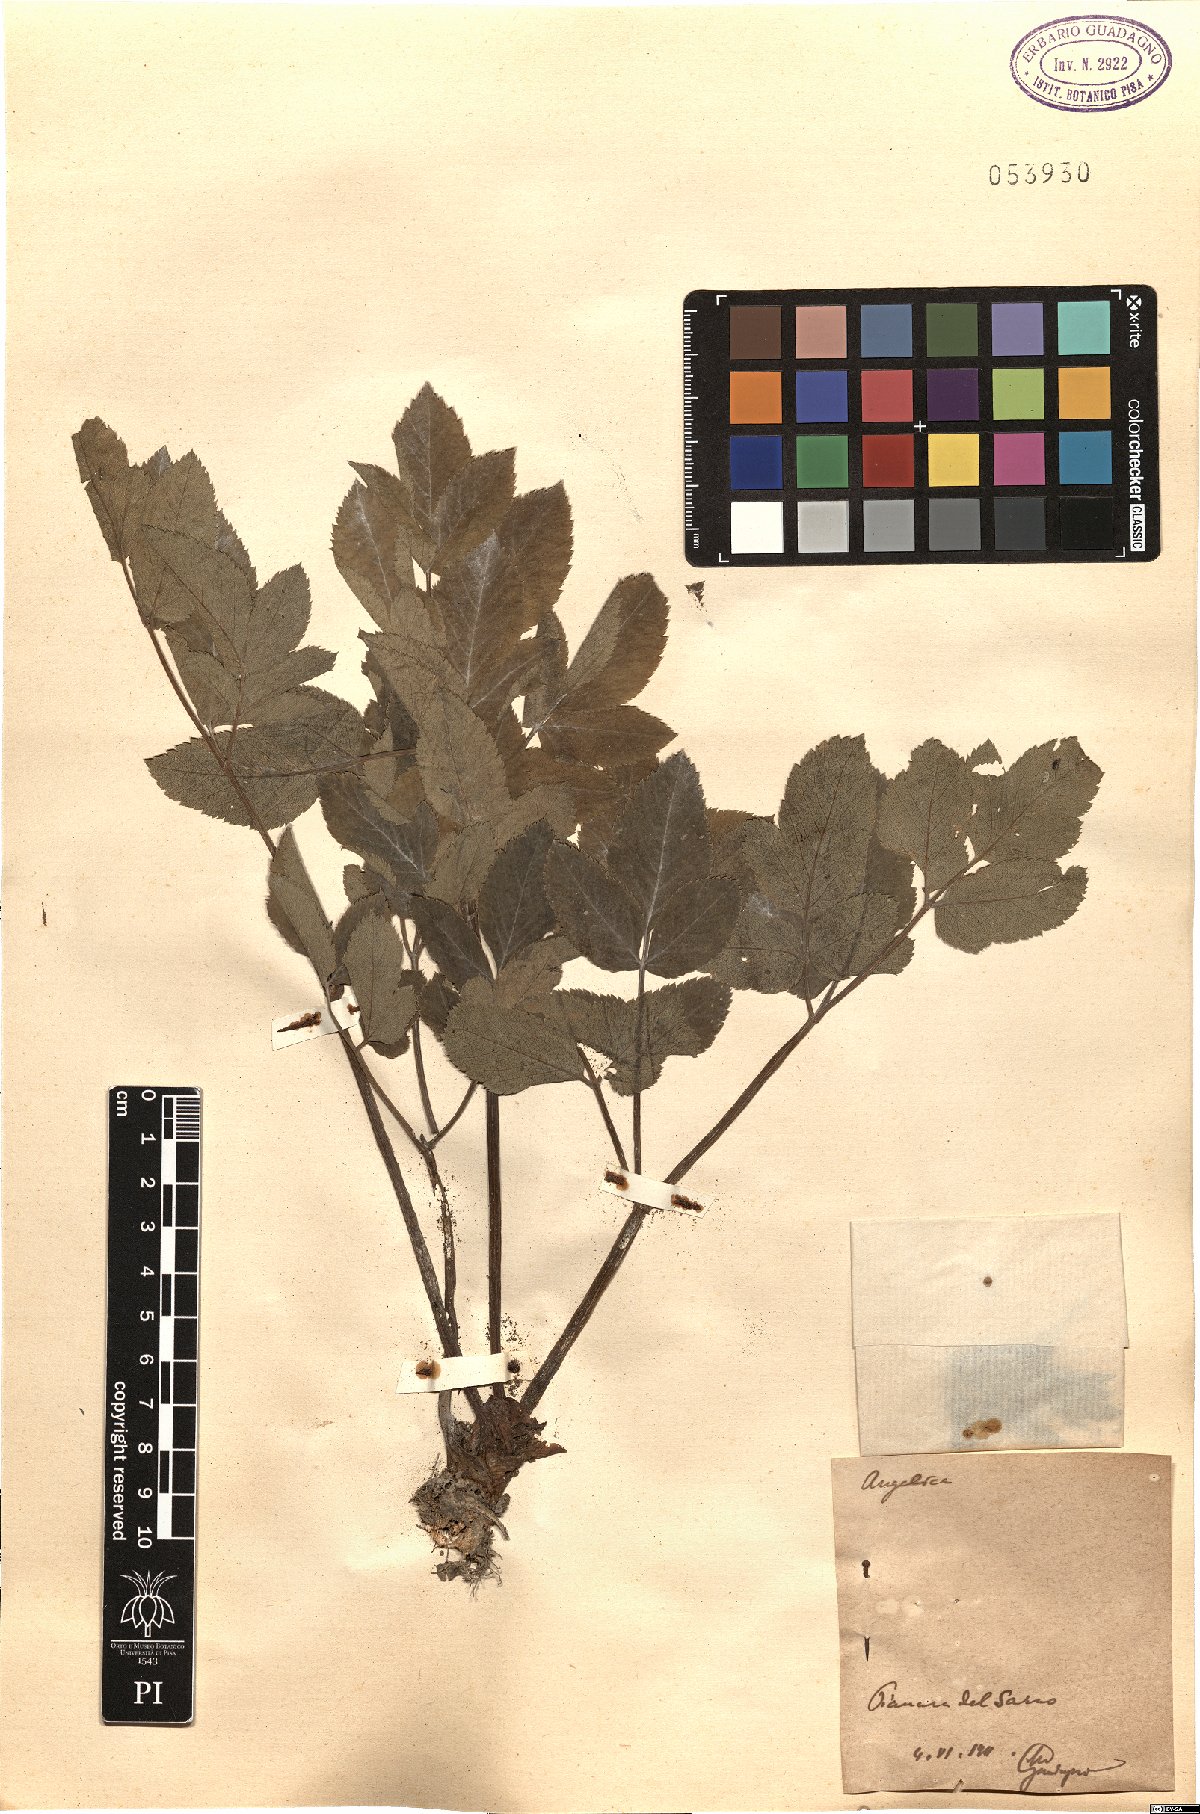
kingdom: Plantae
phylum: Tracheophyta
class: Magnoliopsida
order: Apiales
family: Apiaceae
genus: Angelica
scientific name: Angelica
